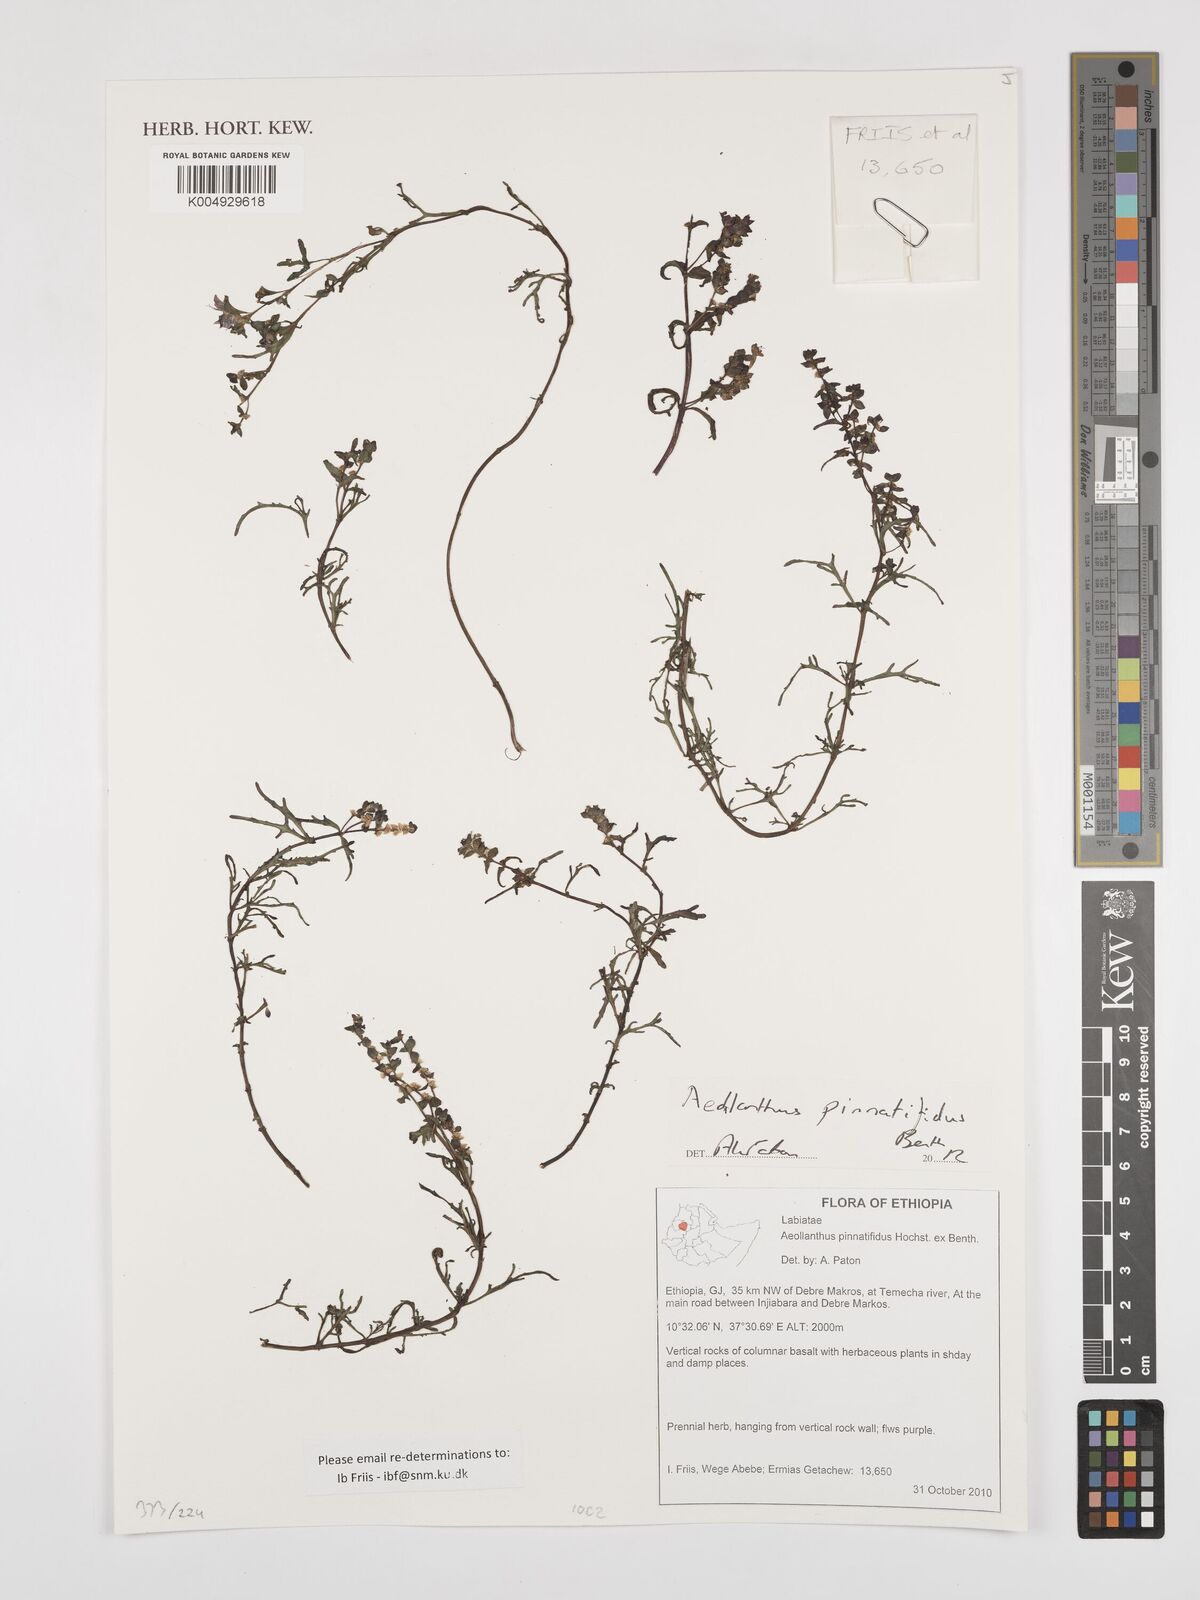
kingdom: Plantae
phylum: Tracheophyta
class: Magnoliopsida
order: Lamiales
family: Lamiaceae
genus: Aeollanthus
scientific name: Aeollanthus pinnatifidus
